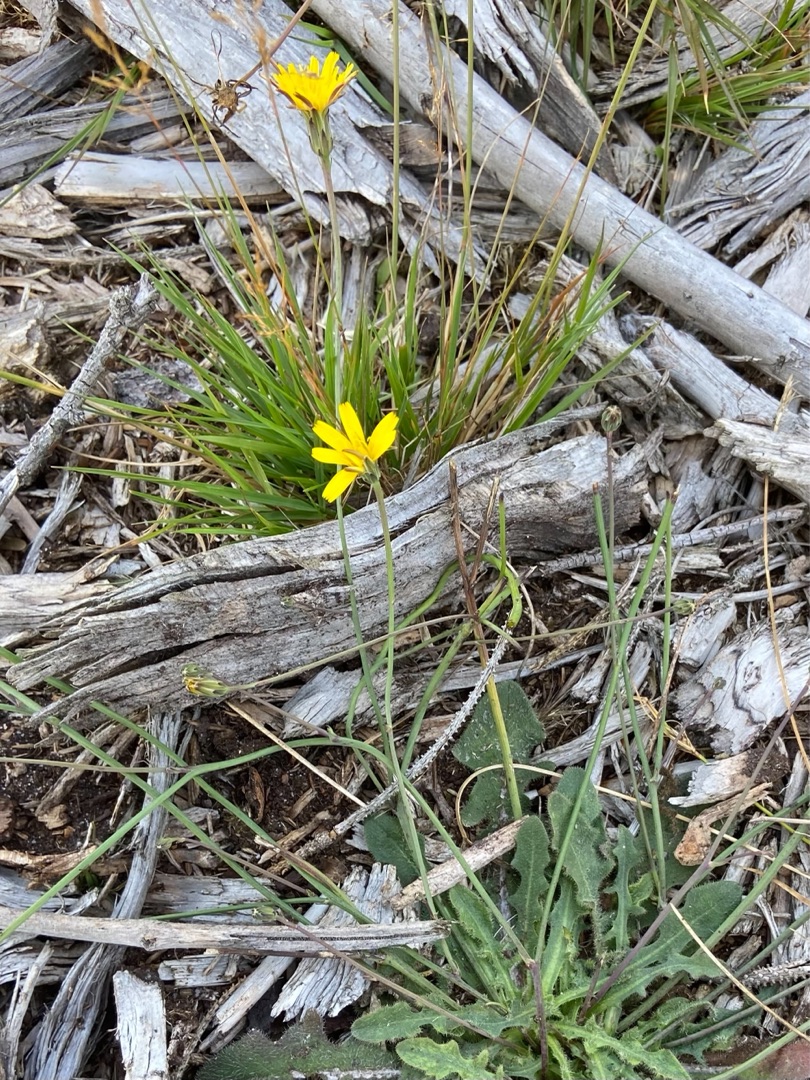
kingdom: Plantae
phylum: Tracheophyta
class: Magnoliopsida
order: Asterales
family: Asteraceae
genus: Hypochaeris
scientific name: Hypochaeris radicata
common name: Almindelig kongepen
